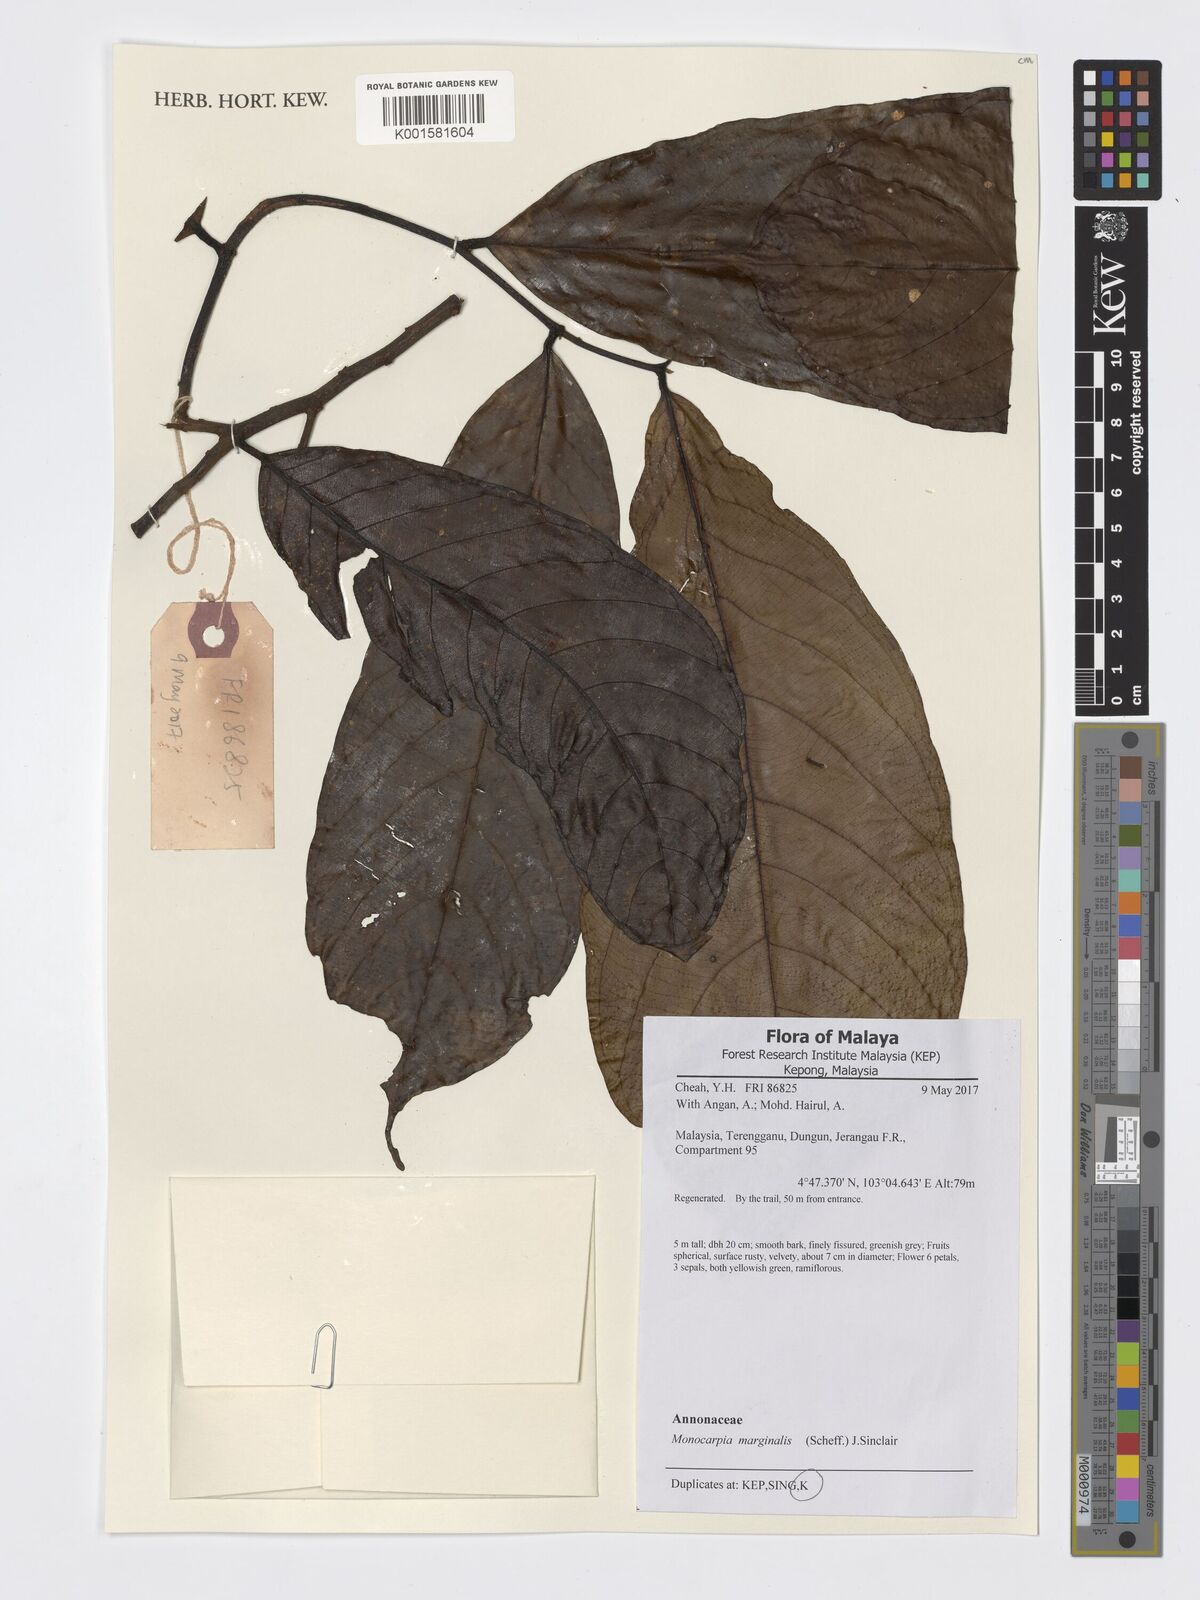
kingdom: Plantae
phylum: Tracheophyta
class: Magnoliopsida
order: Magnoliales
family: Annonaceae
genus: Monocarpia
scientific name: Monocarpia marginalis
